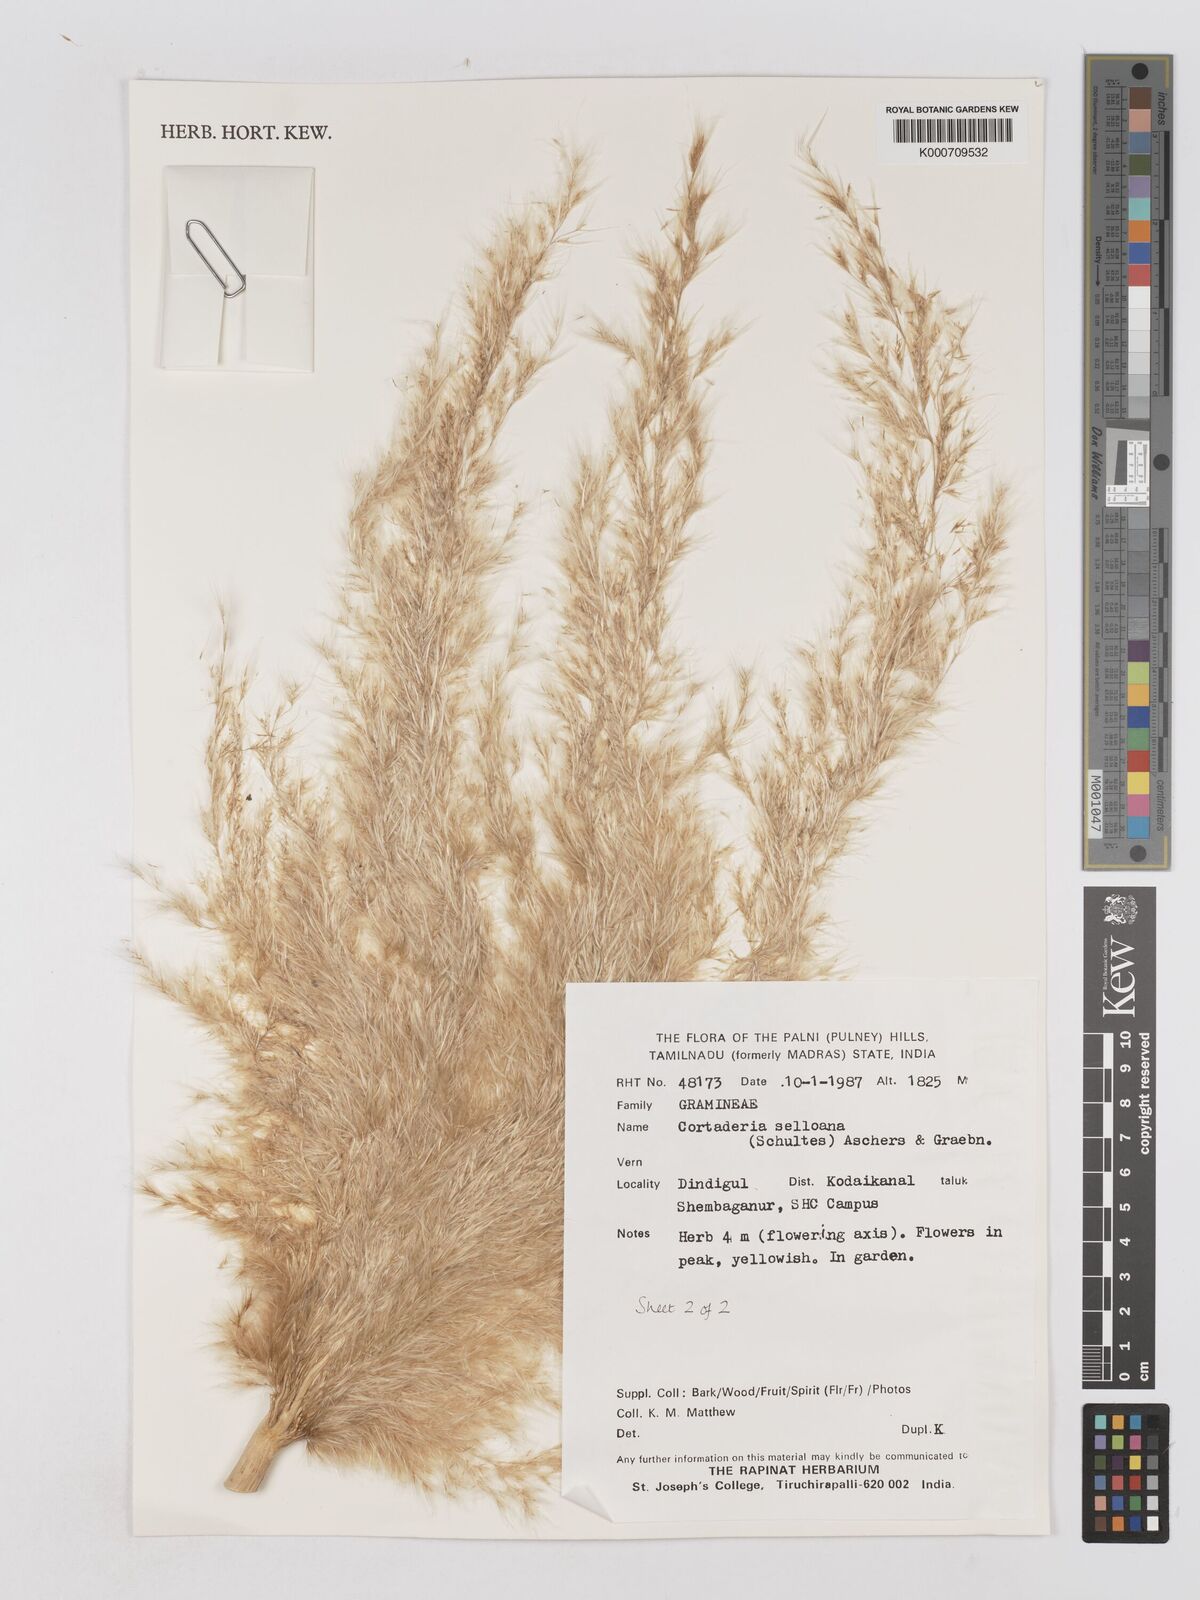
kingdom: Plantae
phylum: Tracheophyta
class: Liliopsida
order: Poales
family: Poaceae
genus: Cortaderia
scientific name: Cortaderia selloana
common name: Uruguayan pampas grass
